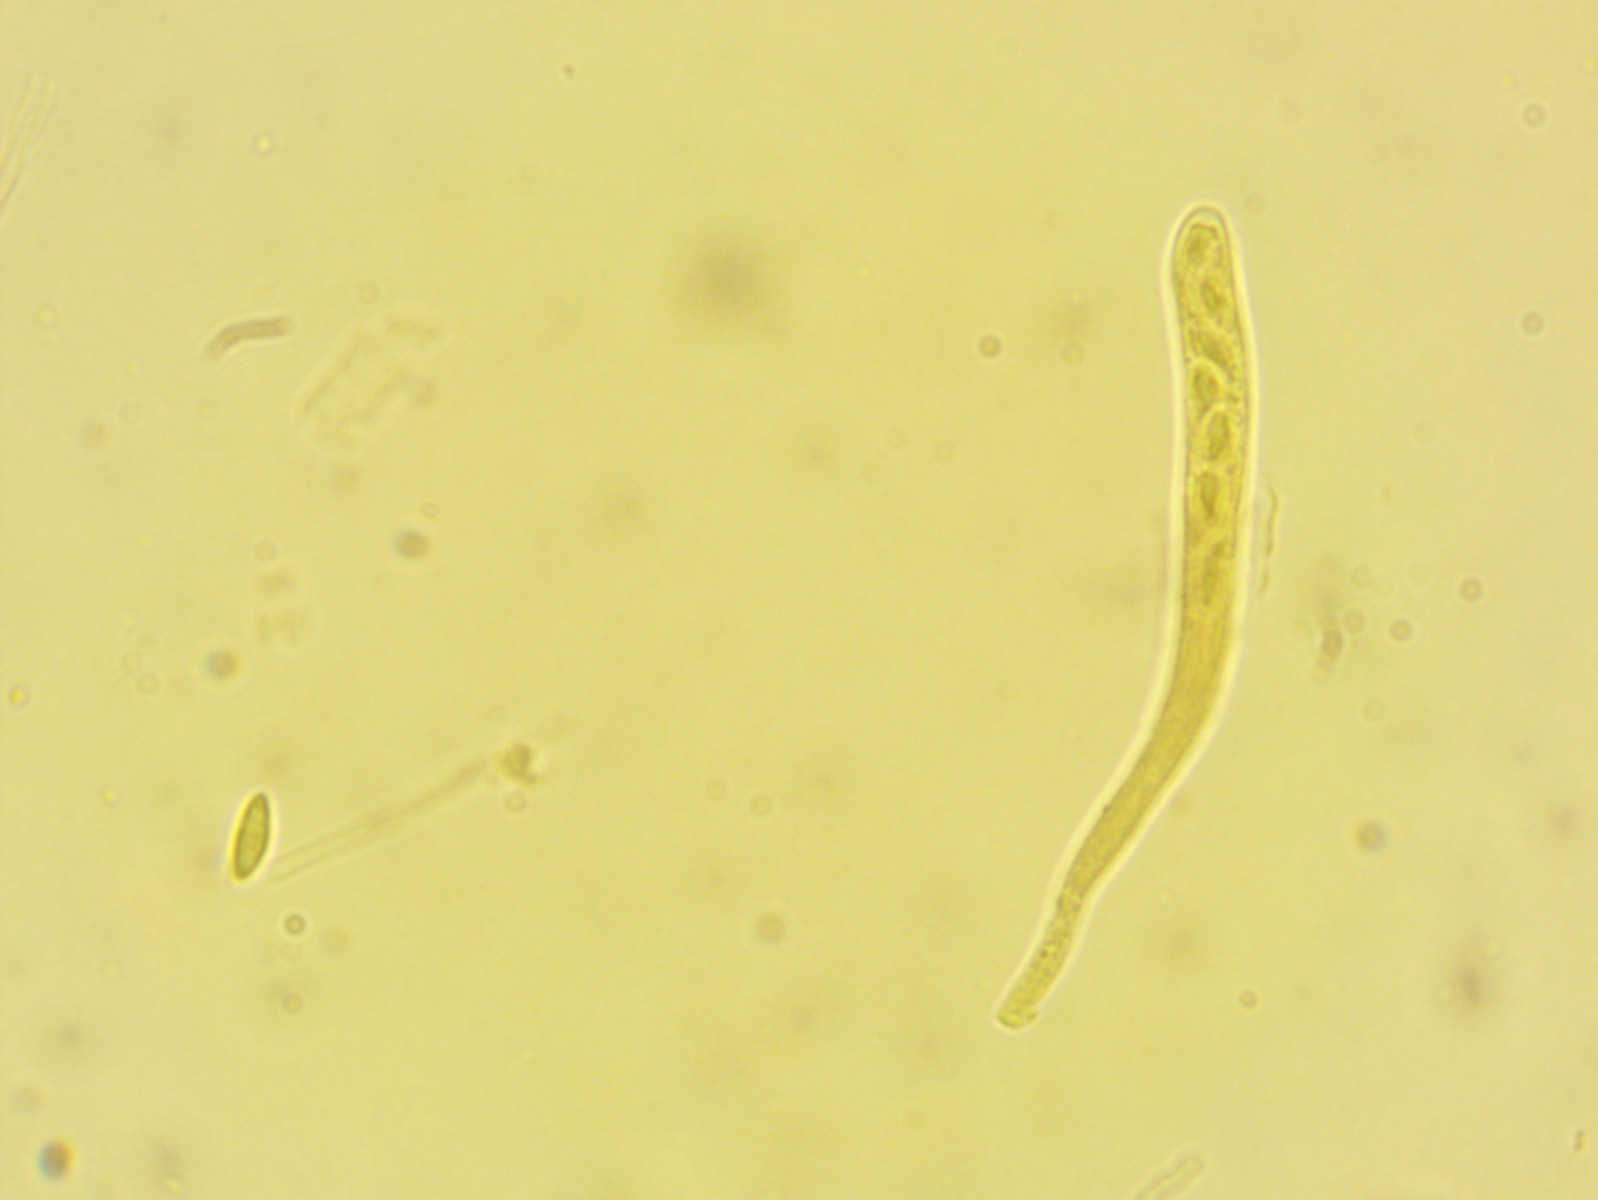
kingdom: Fungi
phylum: Ascomycota
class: Leotiomycetes
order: Helotiales
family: Helotiaceae
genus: Bisporella
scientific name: Bisporella subpallida
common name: lys snitskive
